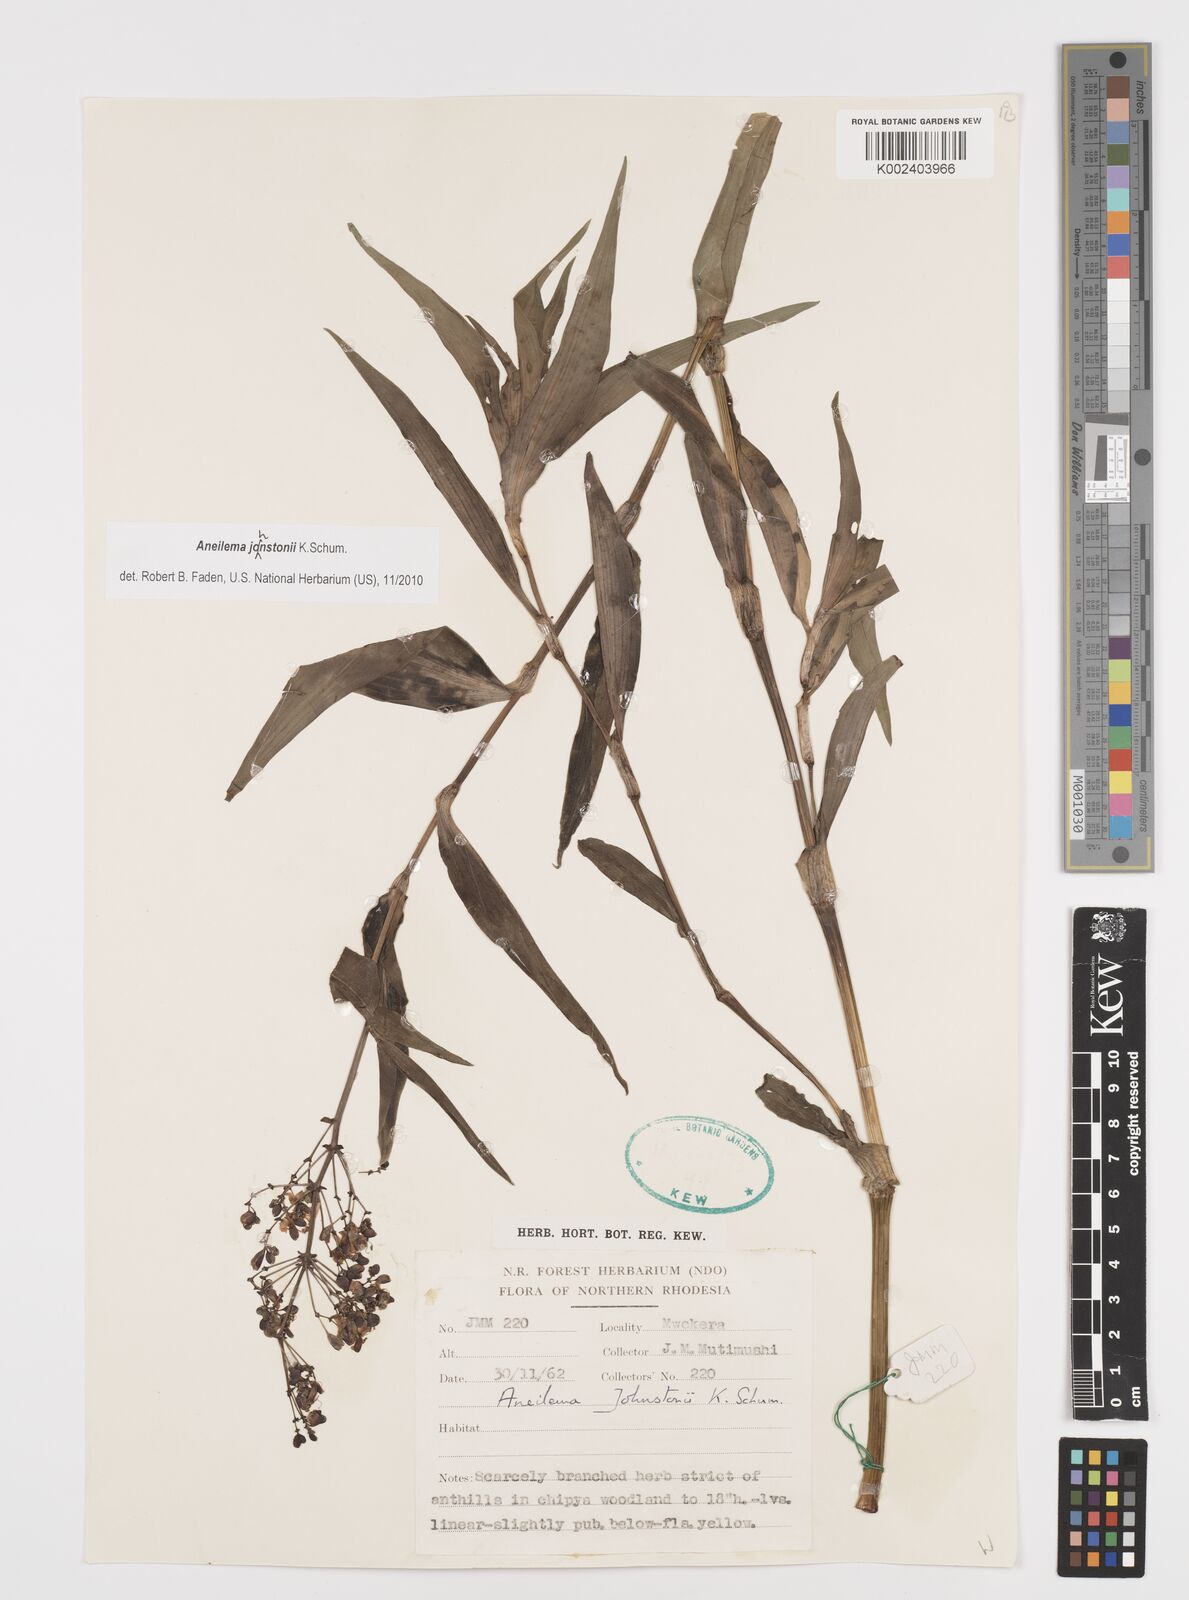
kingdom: Plantae
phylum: Tracheophyta
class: Liliopsida
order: Commelinales
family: Commelinaceae
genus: Aneilema
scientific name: Aneilema johnstonii
